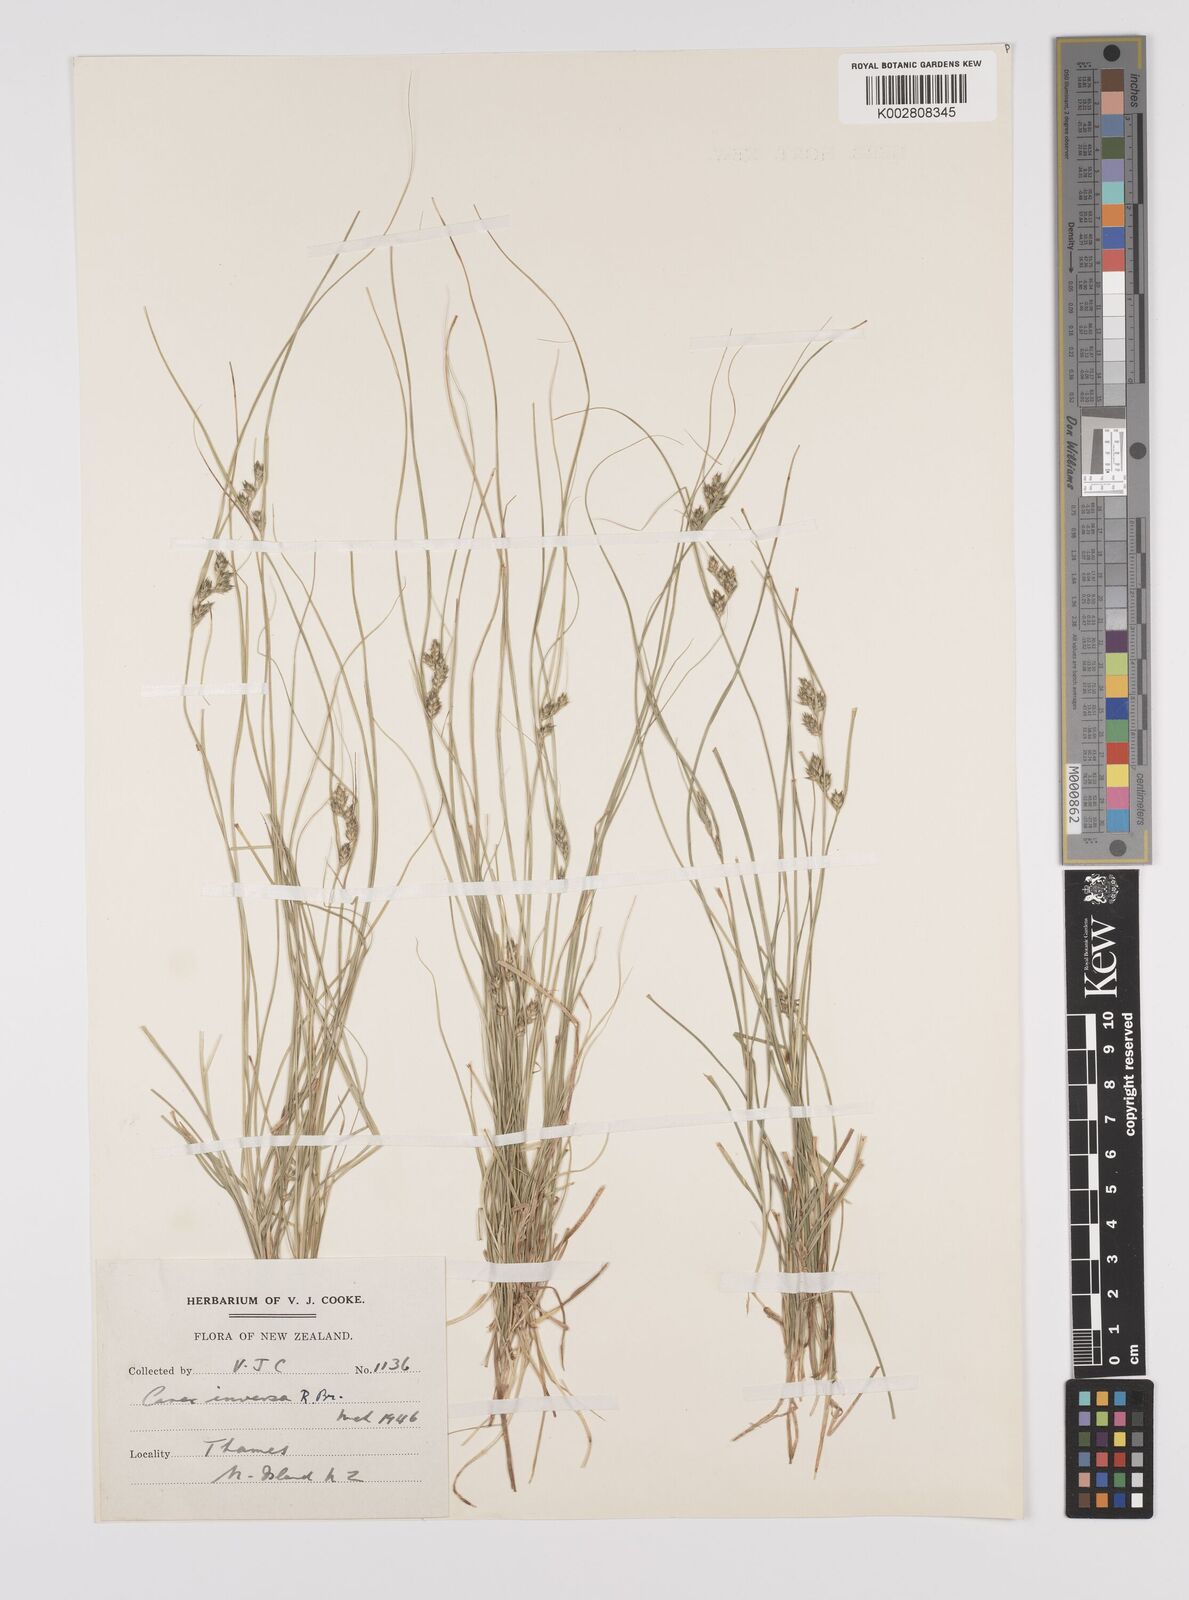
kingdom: Plantae
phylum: Tracheophyta
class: Liliopsida
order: Poales
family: Cyperaceae
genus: Carex
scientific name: Carex inversa
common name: Knob sedge
